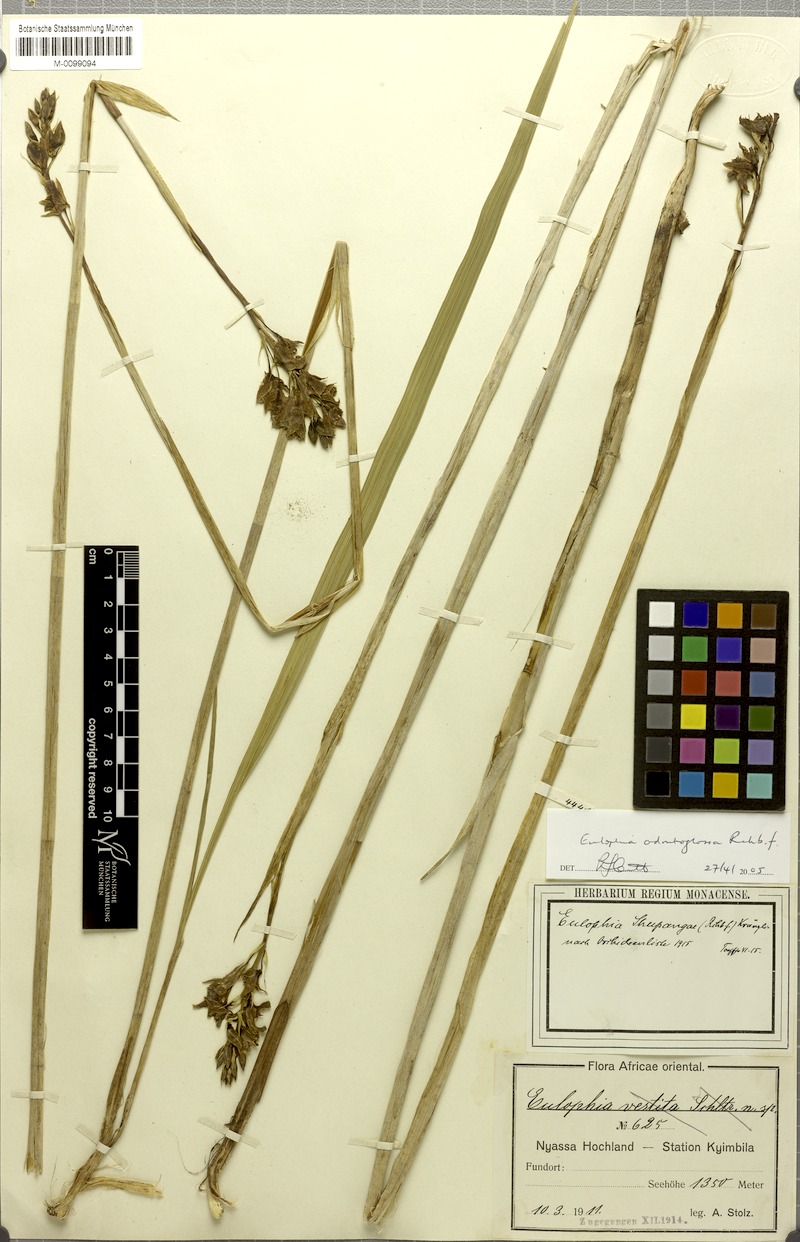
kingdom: Plantae
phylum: Tracheophyta
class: Liliopsida
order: Asparagales
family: Orchidaceae
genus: Eulophia
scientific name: Eulophia odontoglossa
